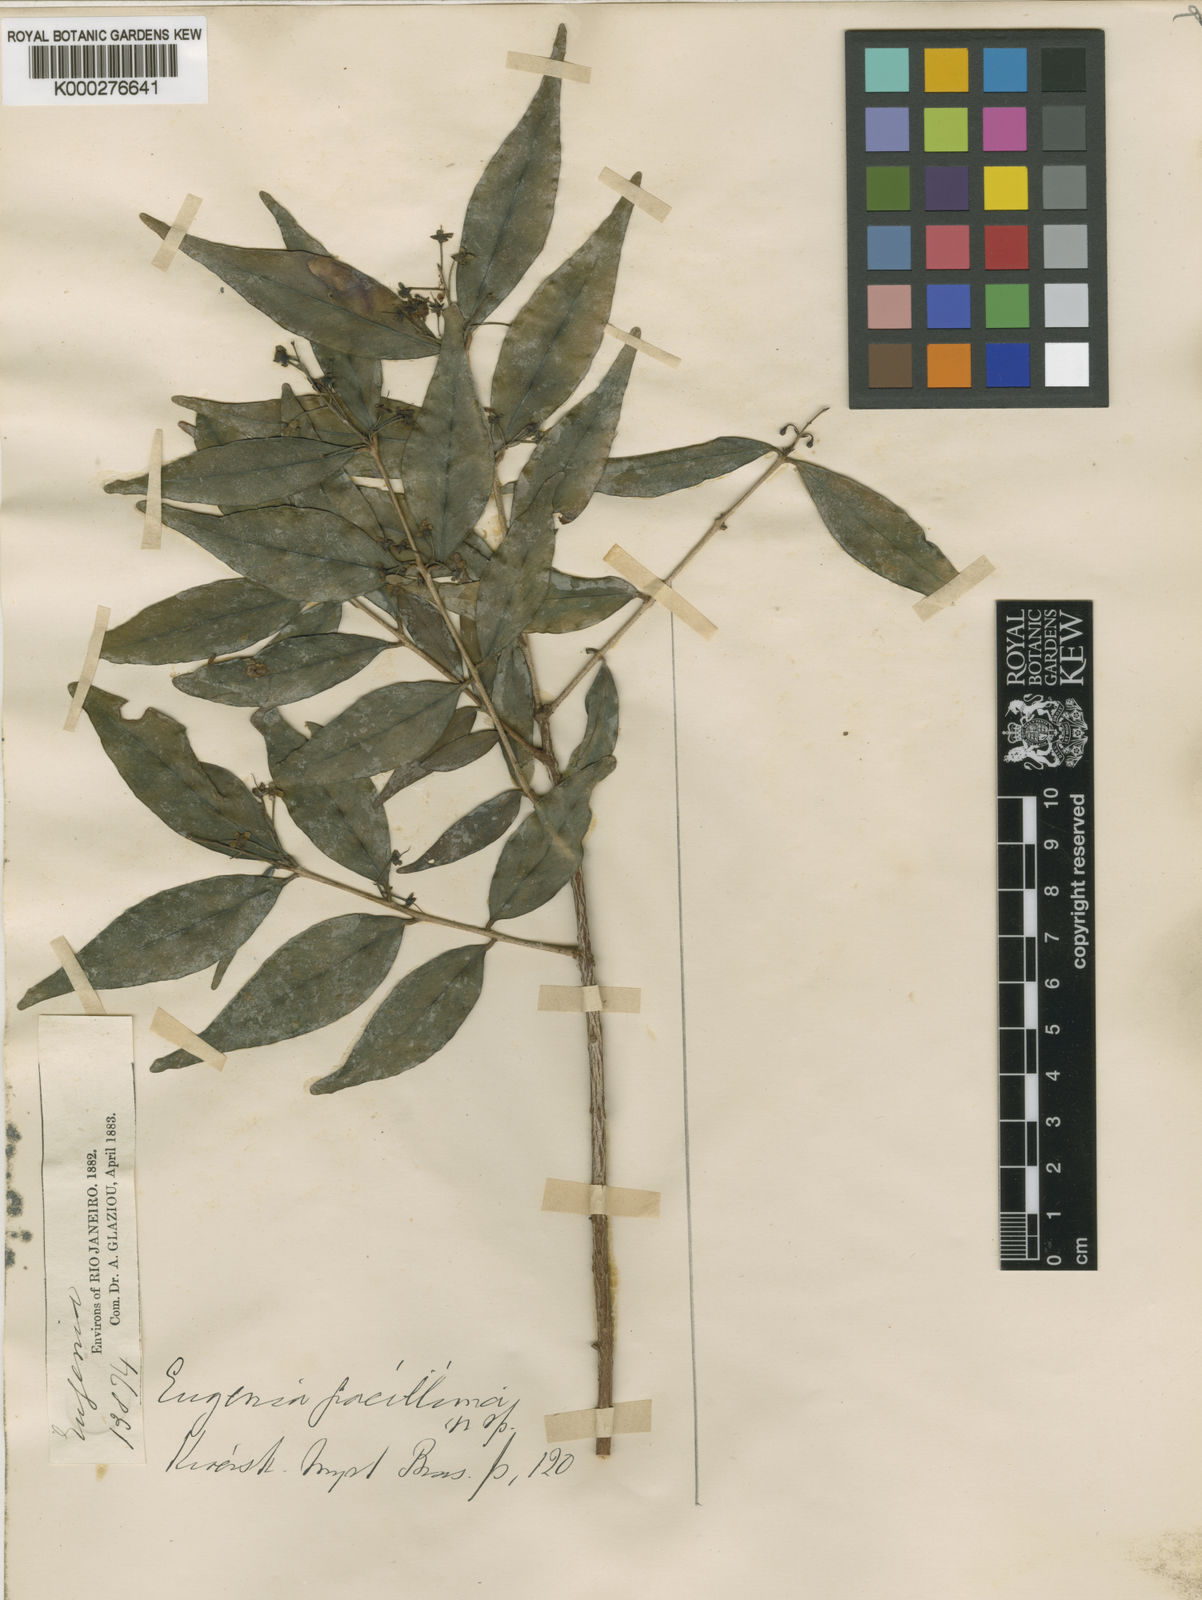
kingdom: Plantae
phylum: Tracheophyta
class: Magnoliopsida
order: Myrtales
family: Myrtaceae
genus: Eugenia
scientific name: Eugenia gracillima
